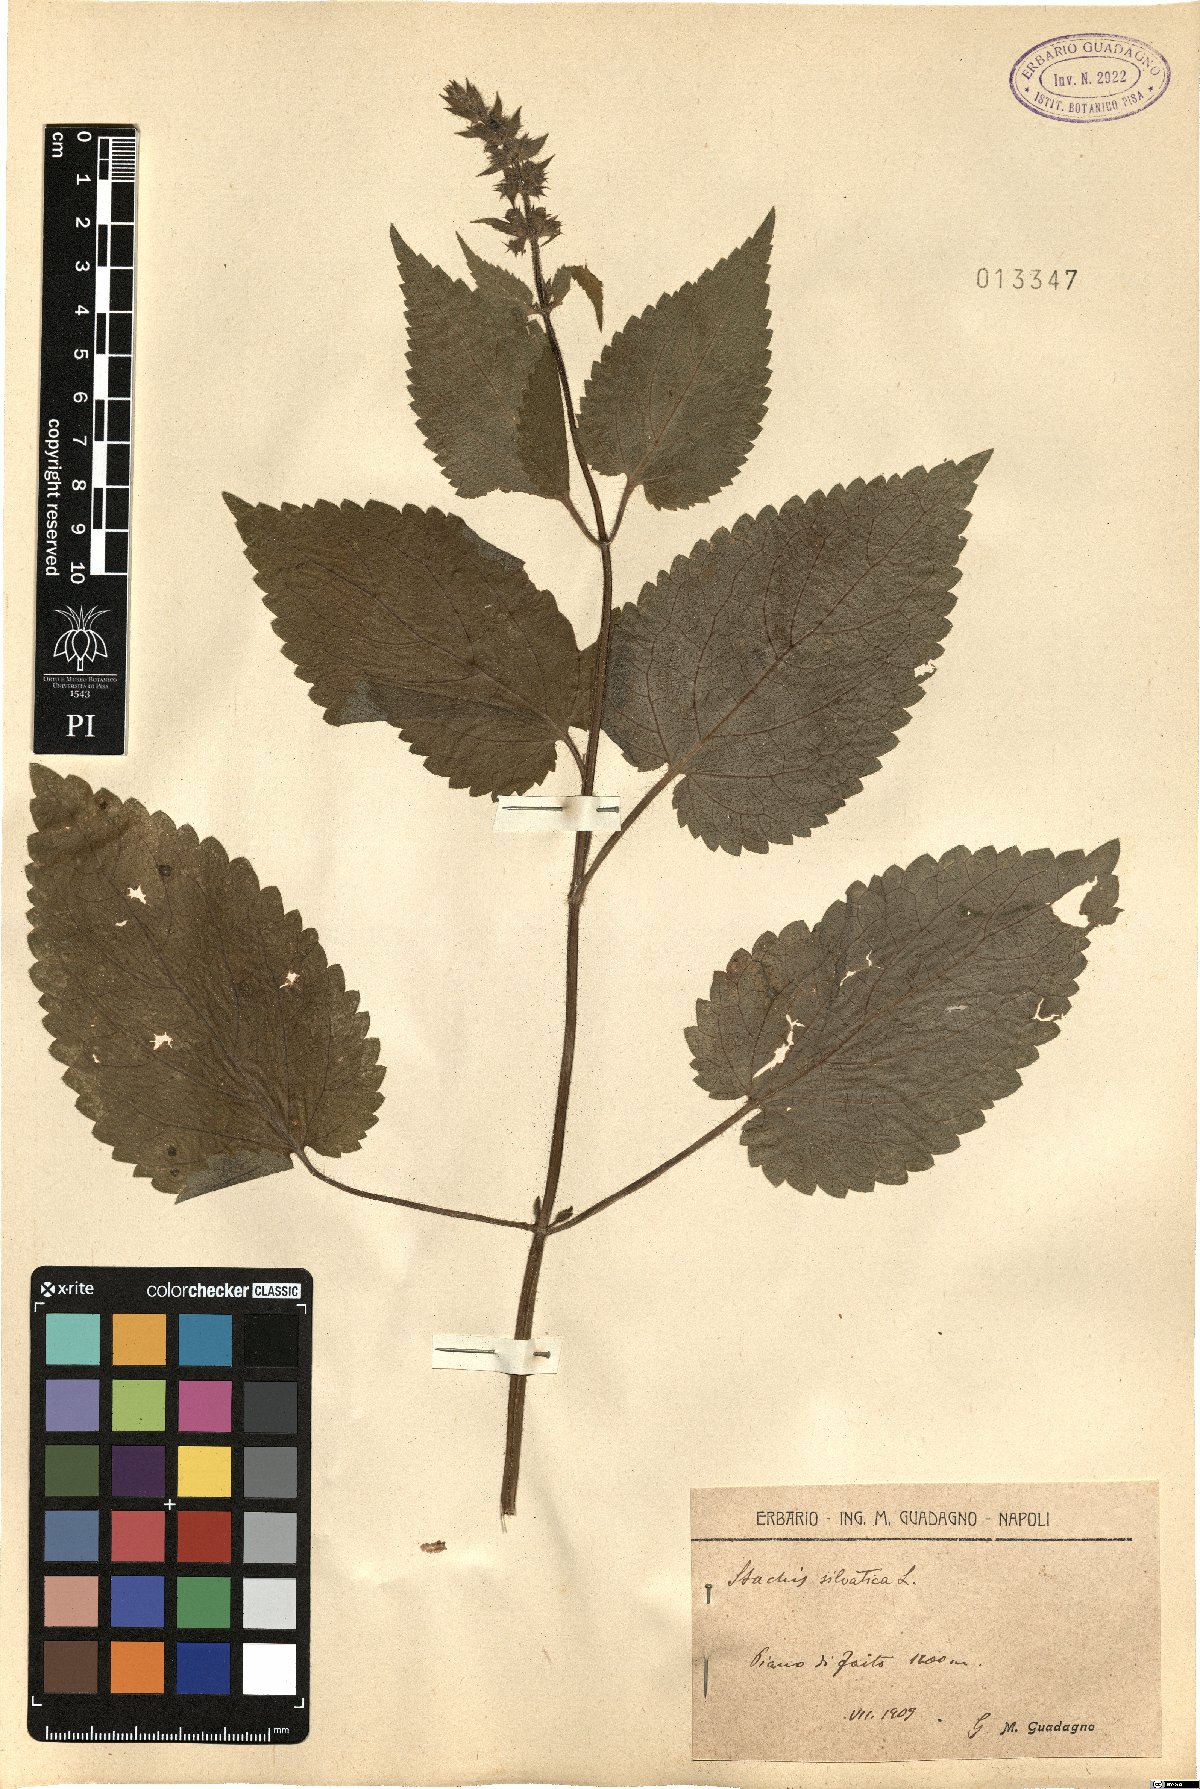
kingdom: Plantae
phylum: Tracheophyta
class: Magnoliopsida
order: Lamiales
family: Lamiaceae
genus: Stachys
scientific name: Stachys sylvatica
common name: Hedge woundwort
